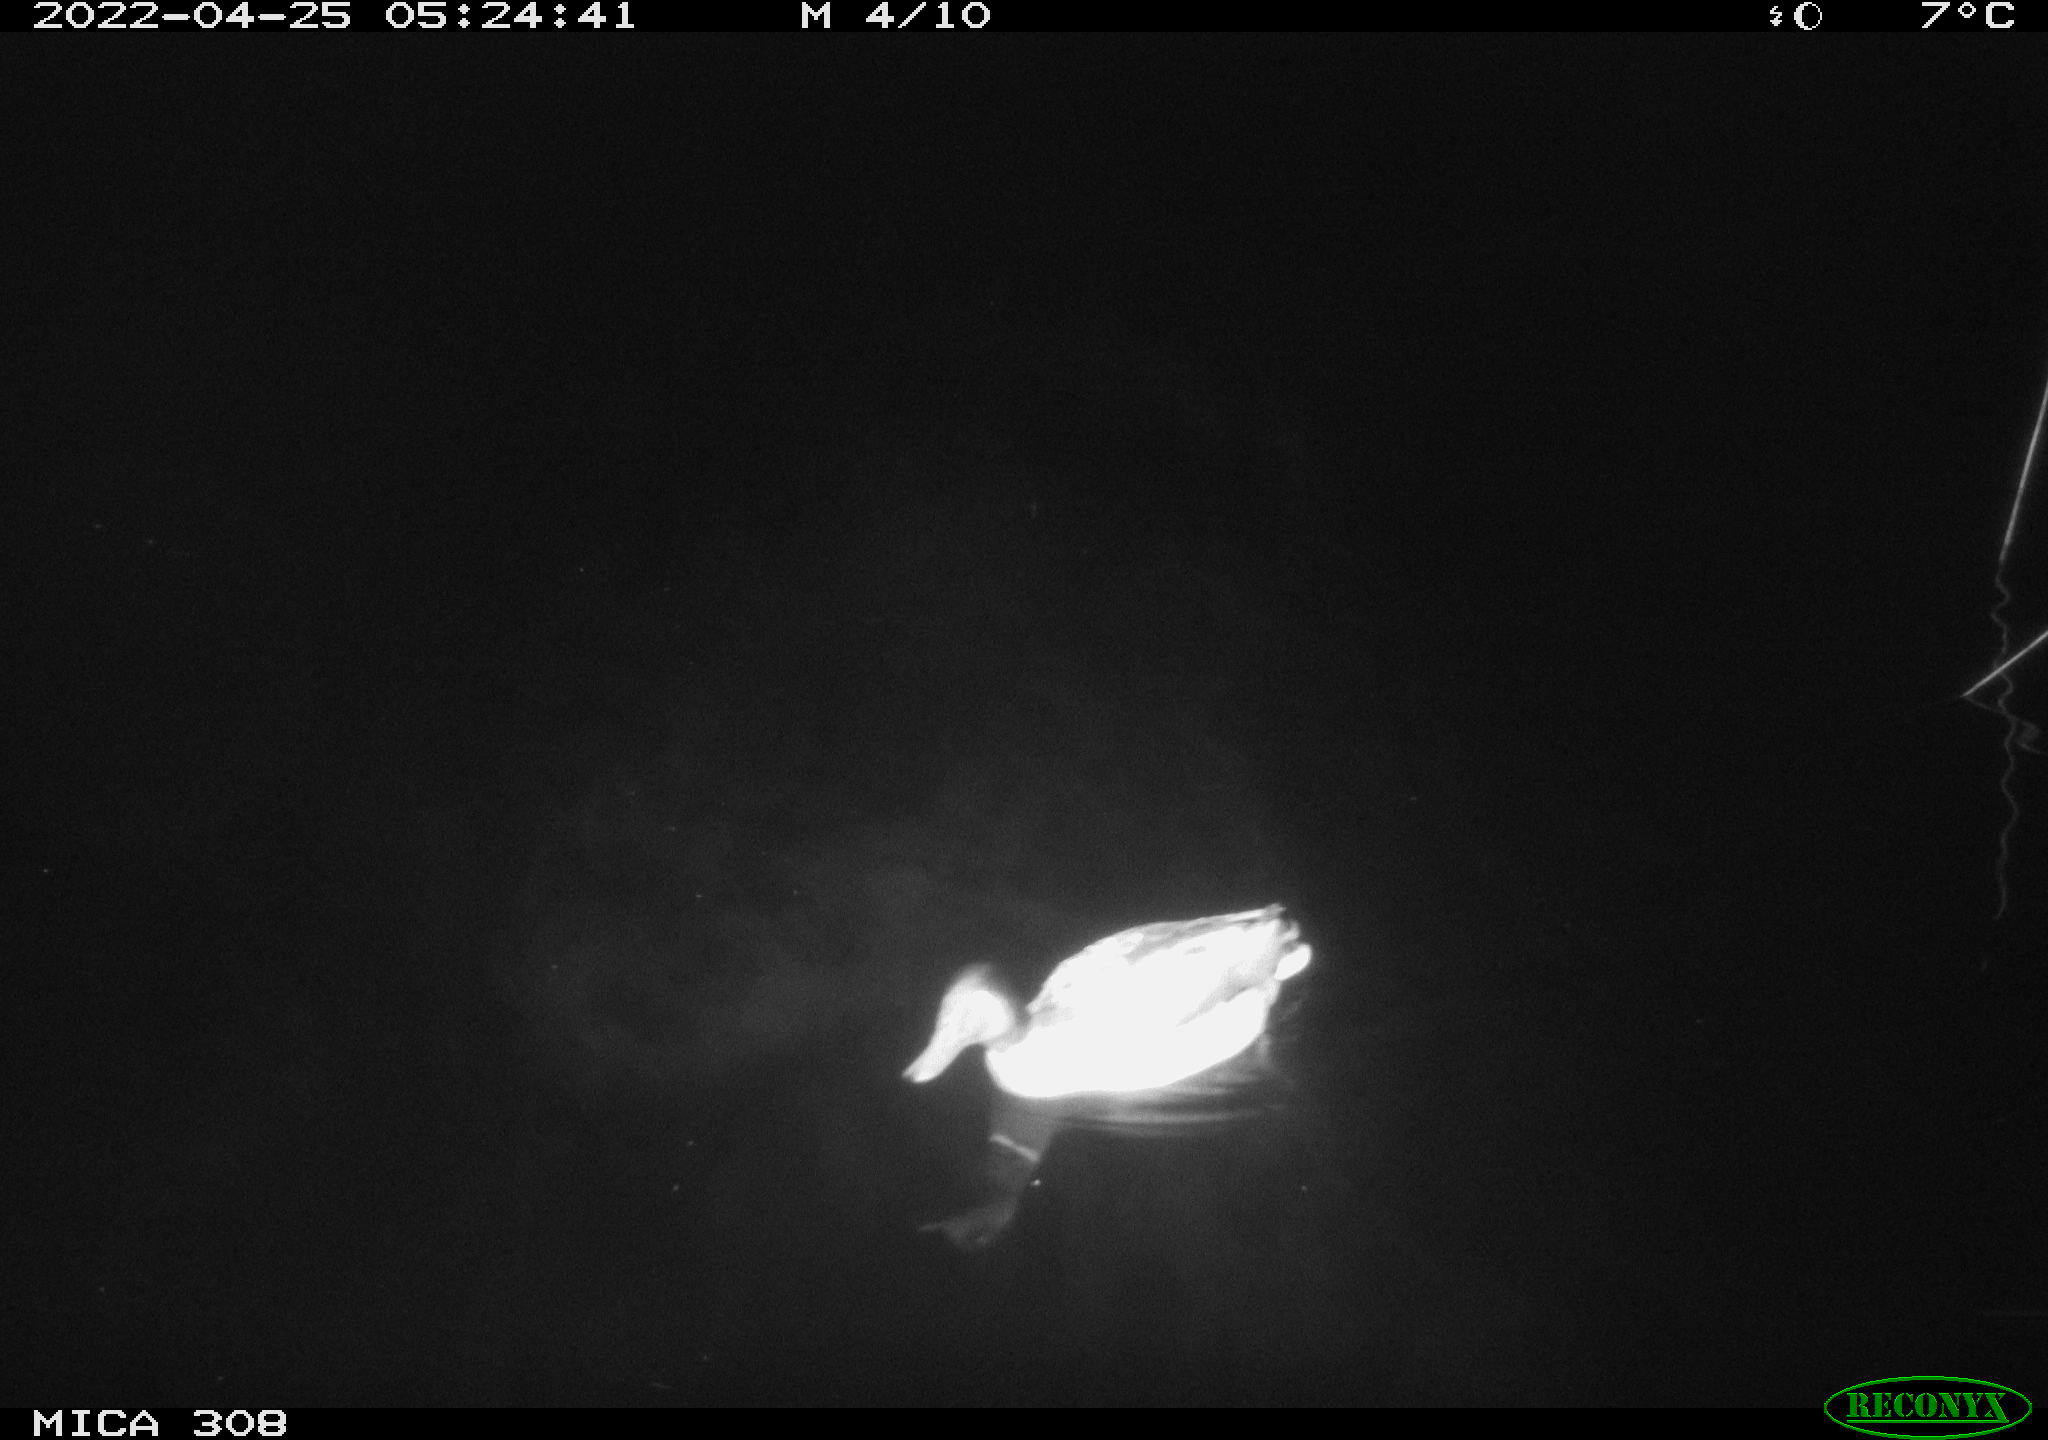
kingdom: Animalia
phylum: Chordata
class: Aves
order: Anseriformes
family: Anatidae
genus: Anas
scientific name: Anas platyrhynchos
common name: Mallard
